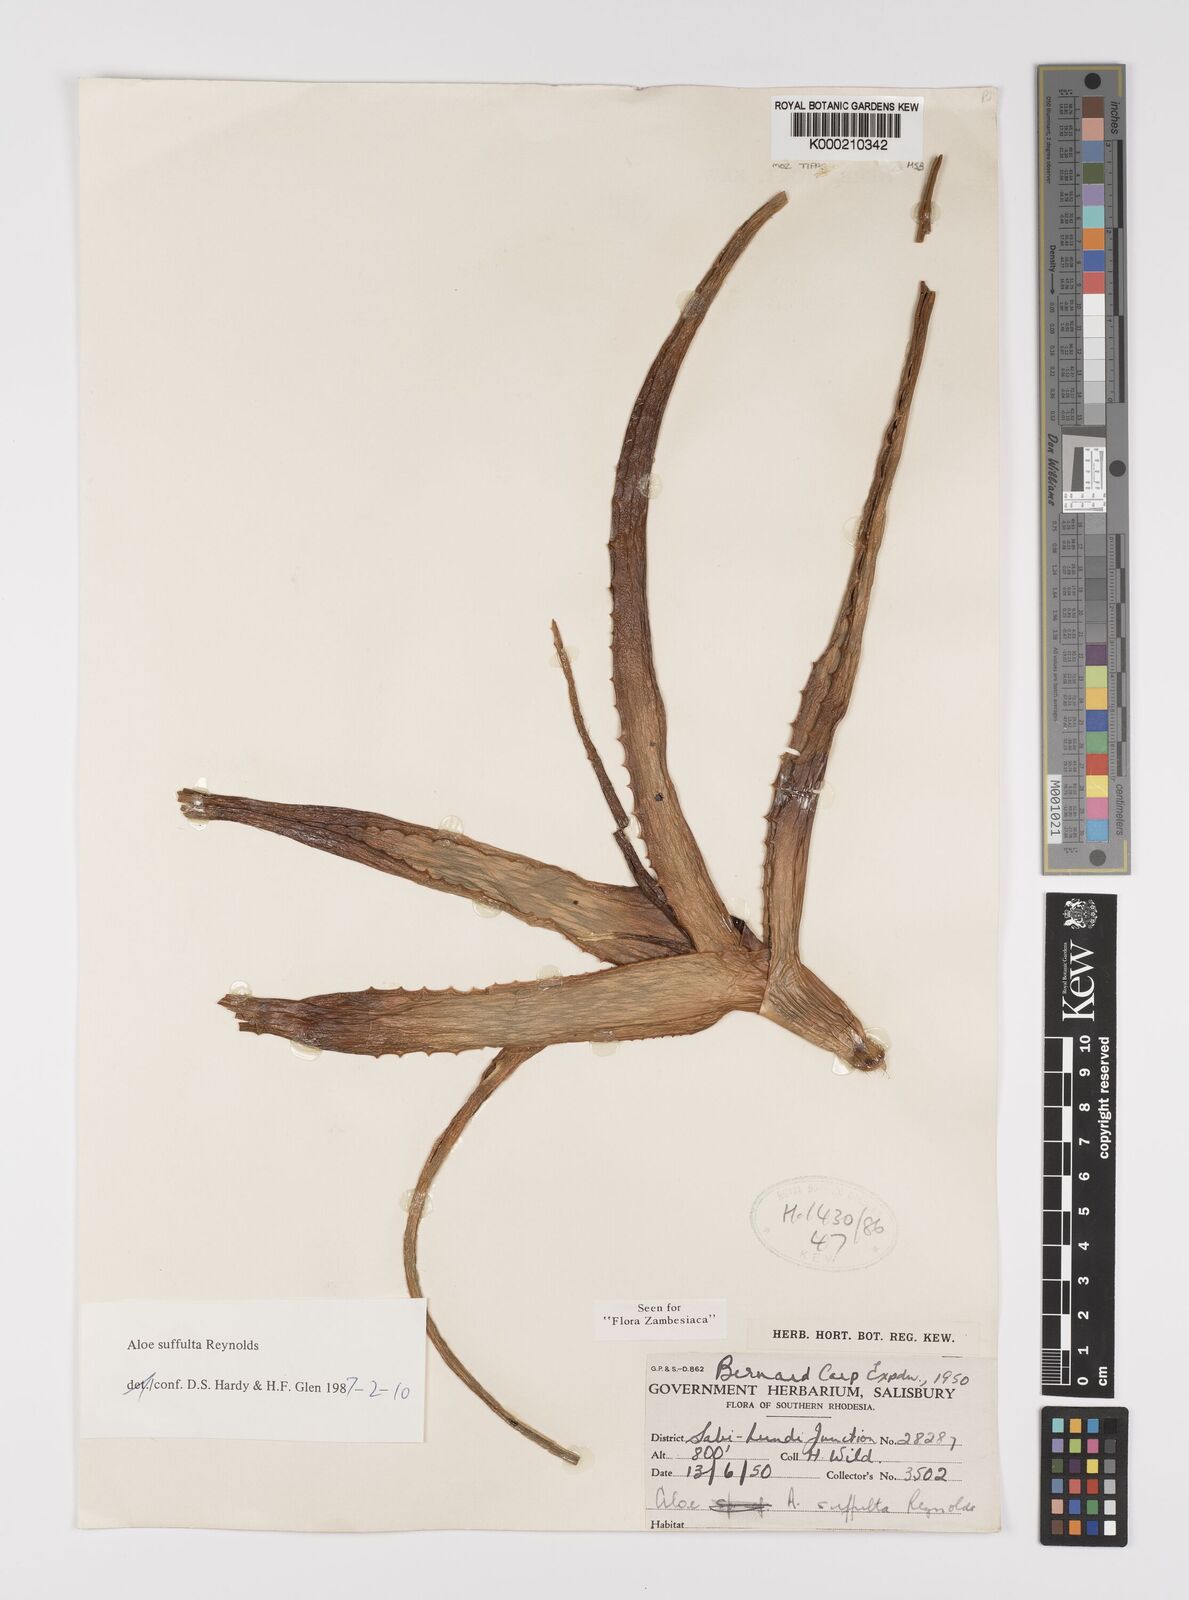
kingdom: Plantae
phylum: Tracheophyta
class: Liliopsida
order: Asparagales
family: Asphodelaceae
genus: Aloe
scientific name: Aloe suffulta
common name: Climbing-flower aloe
